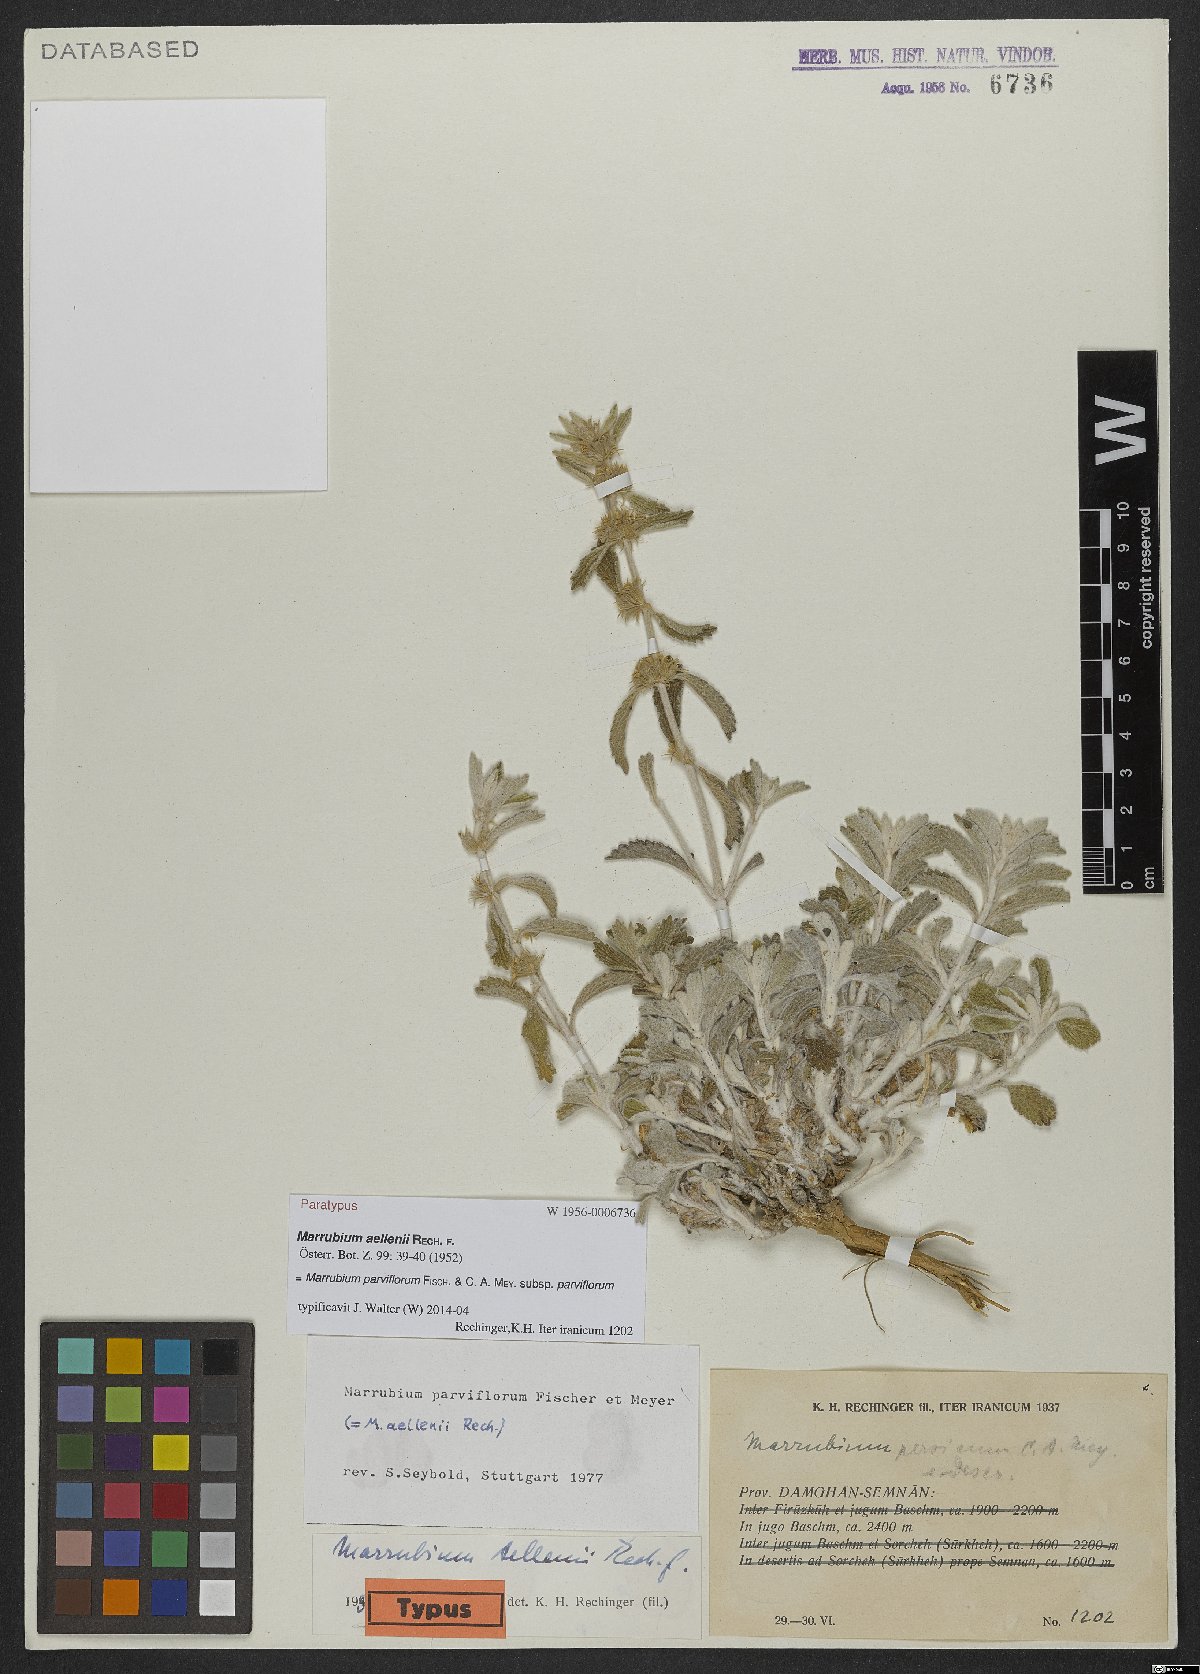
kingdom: Plantae
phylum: Tracheophyta
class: Magnoliopsida
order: Lamiales
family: Lamiaceae
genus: Marrubium
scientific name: Marrubium parviflorum
